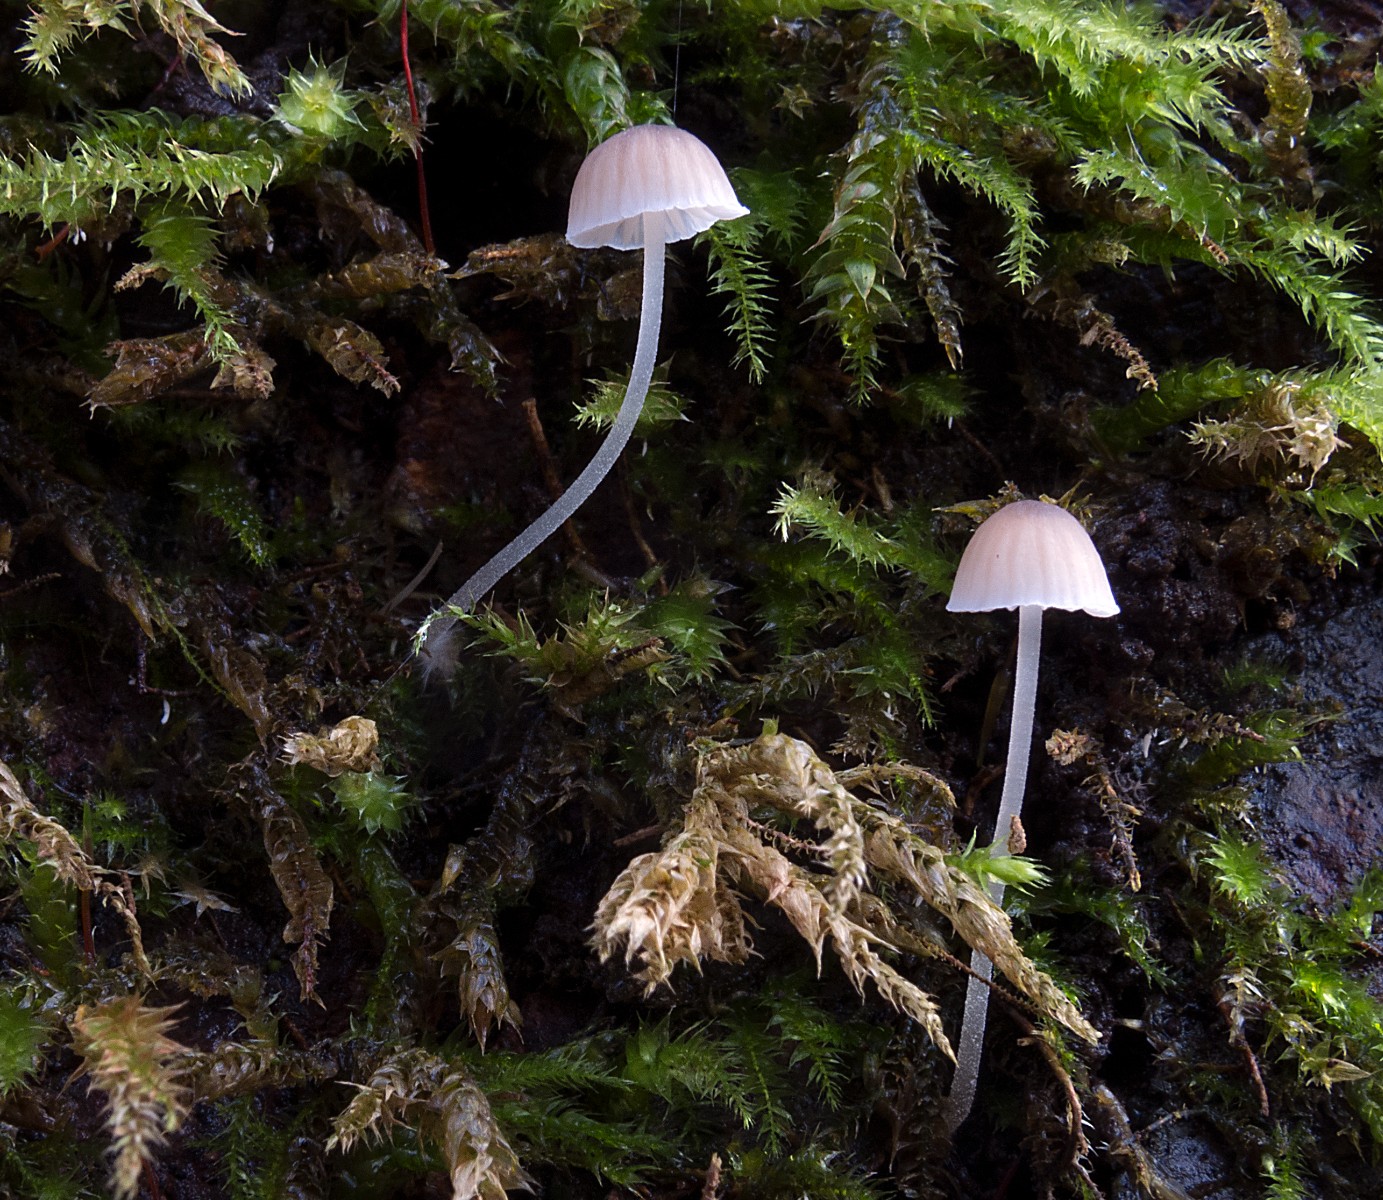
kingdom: Fungi
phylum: Basidiomycota
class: Agaricomycetes
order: Agaricales
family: Porotheleaceae
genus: Phloeomana
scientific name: Phloeomana hiemalis
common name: sen huesvamp
